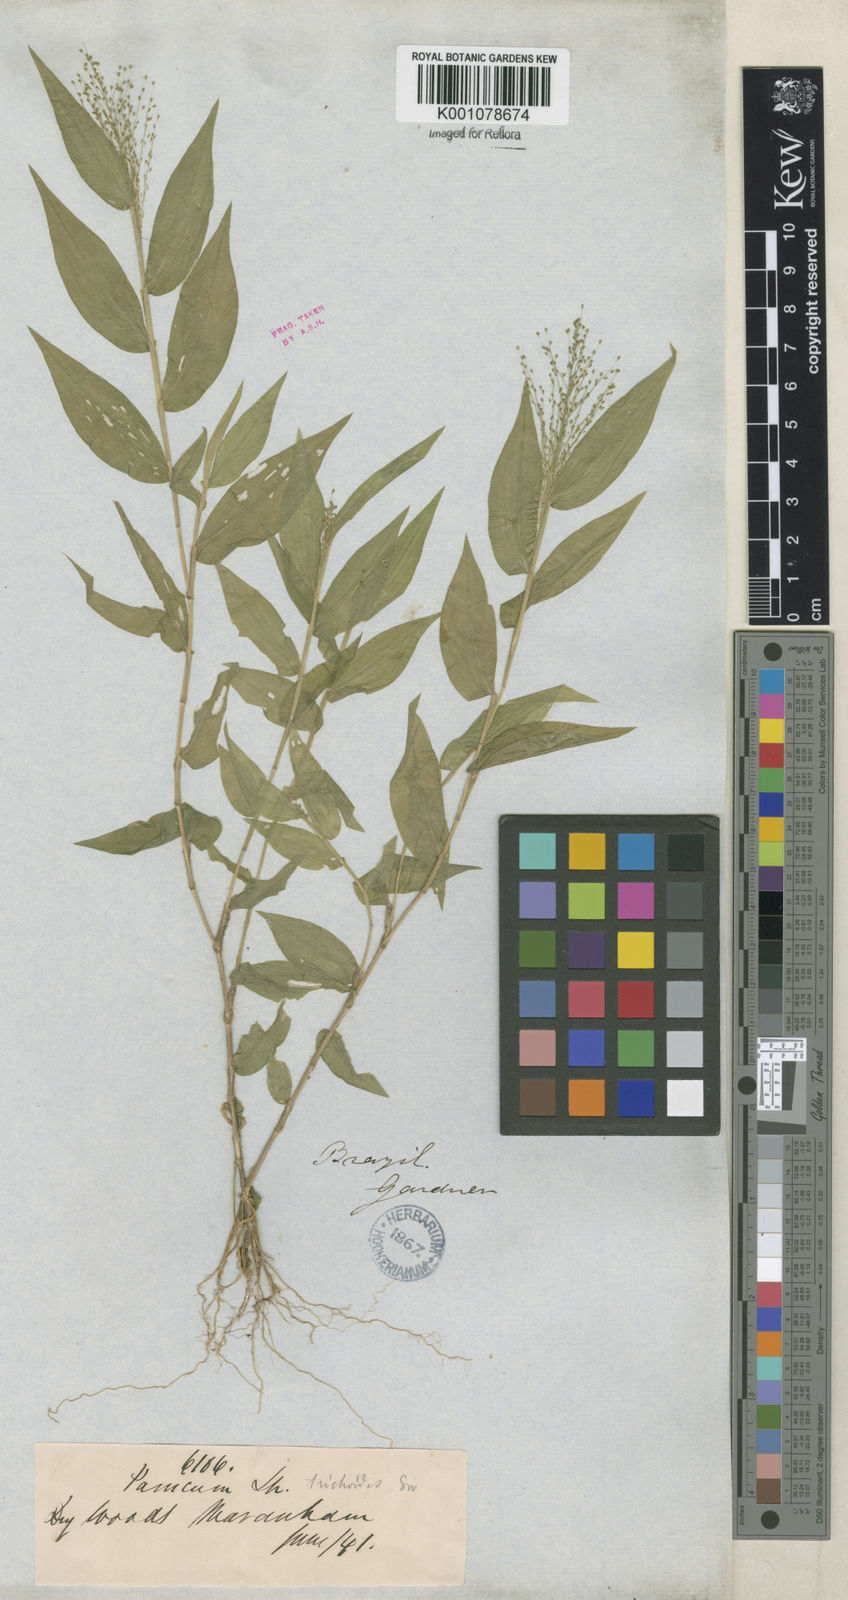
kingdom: Plantae
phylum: Tracheophyta
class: Liliopsida
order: Poales
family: Poaceae
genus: Panicum
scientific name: Panicum trichoides
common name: Tickle grass
